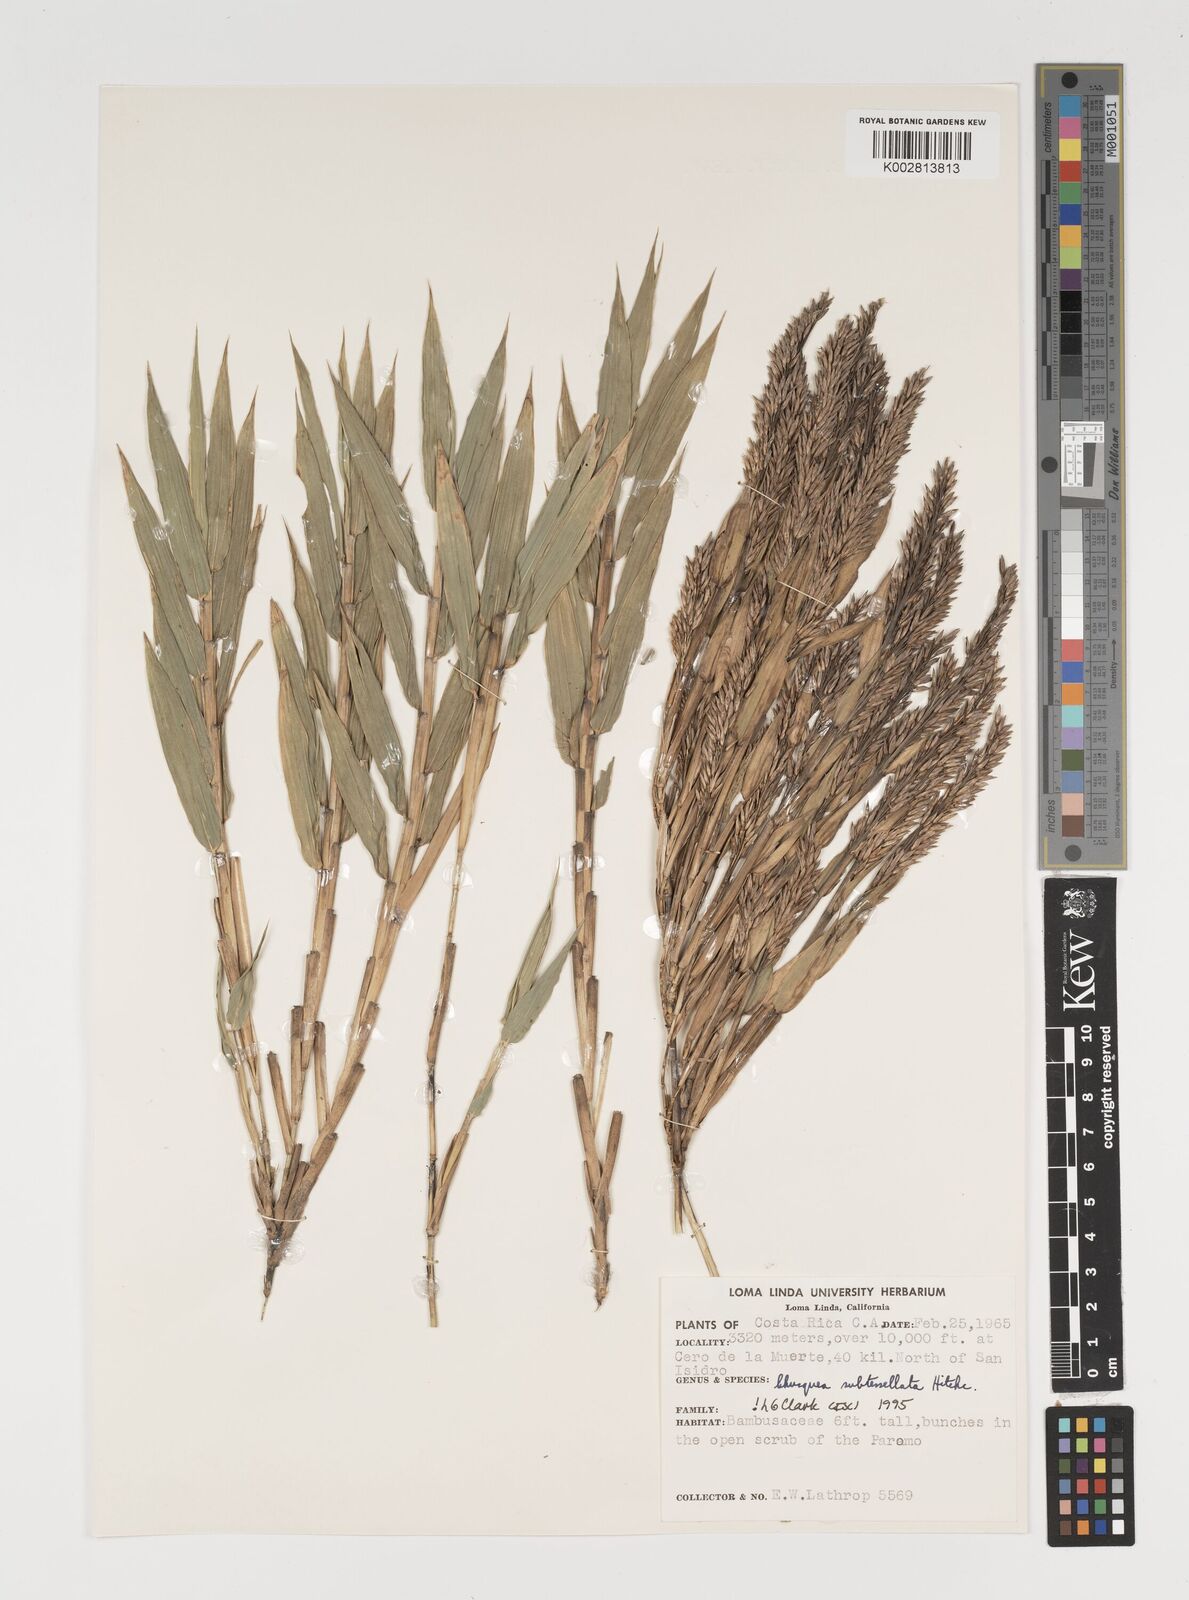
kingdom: Plantae
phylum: Tracheophyta
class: Liliopsida
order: Poales
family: Poaceae
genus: Chusquea
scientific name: Chusquea subtessellata
